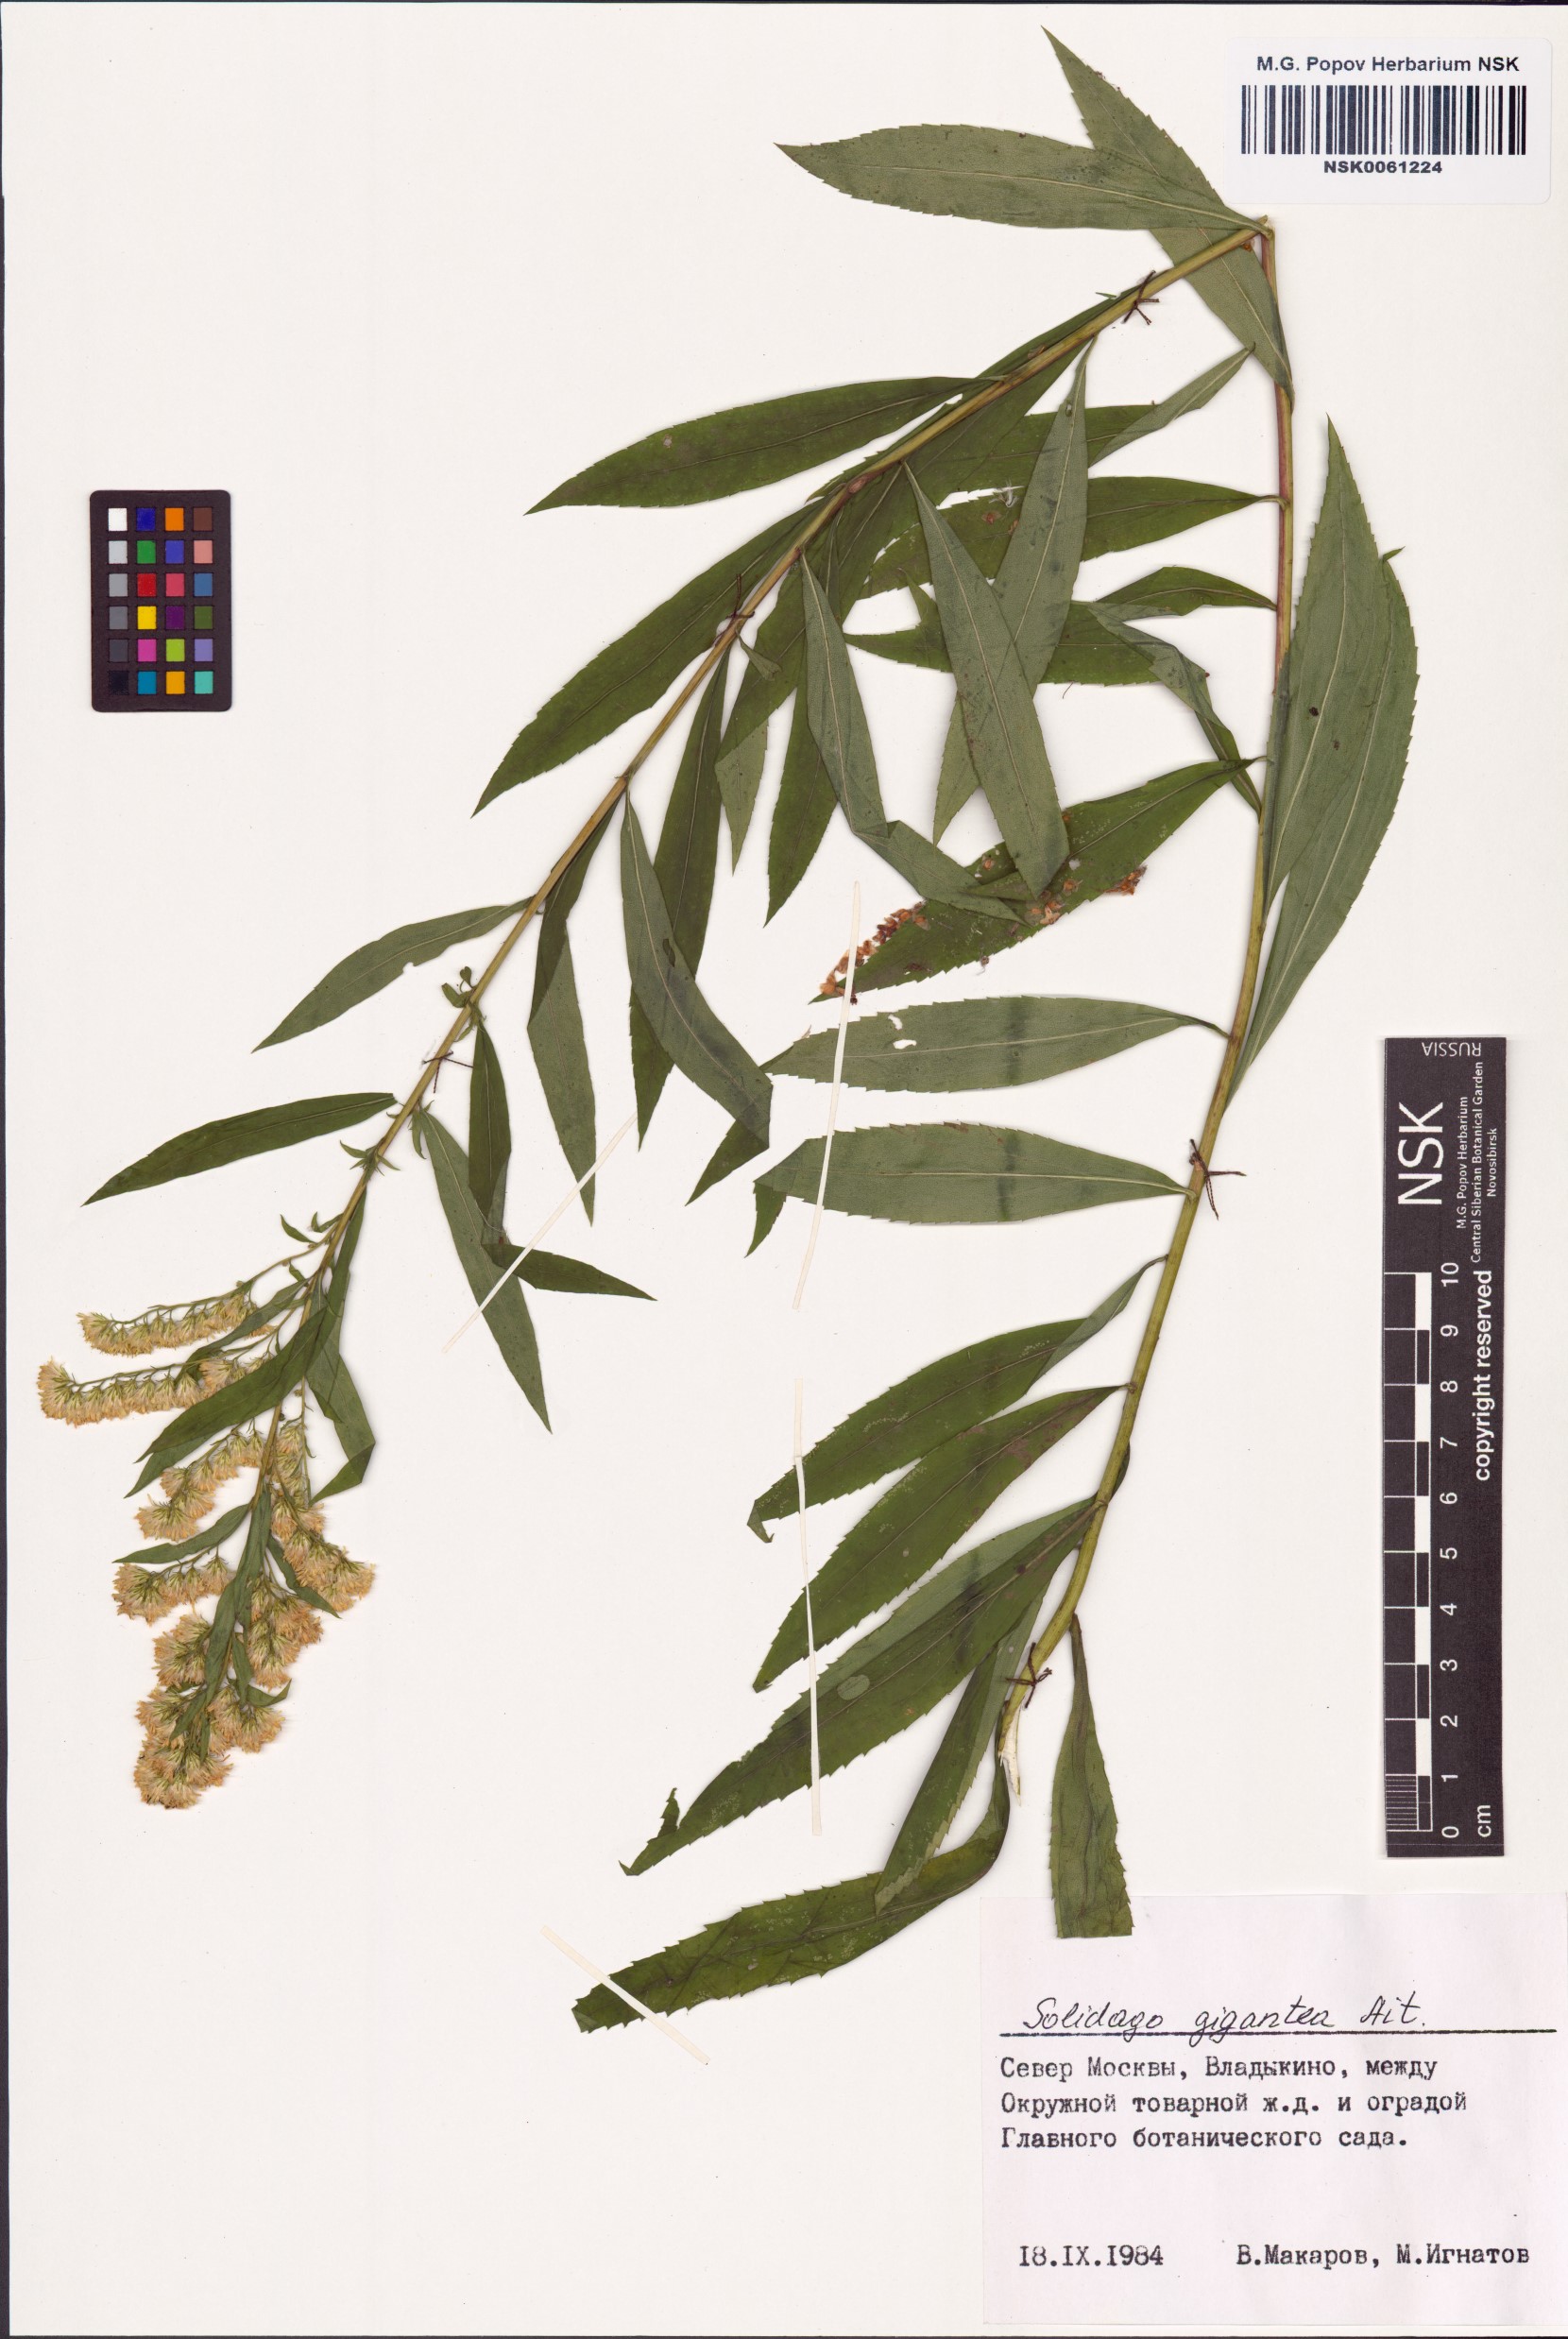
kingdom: Plantae
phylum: Tracheophyta
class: Magnoliopsida
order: Asterales
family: Asteraceae
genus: Solidago
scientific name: Solidago gigantea
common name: Giant goldenrod
